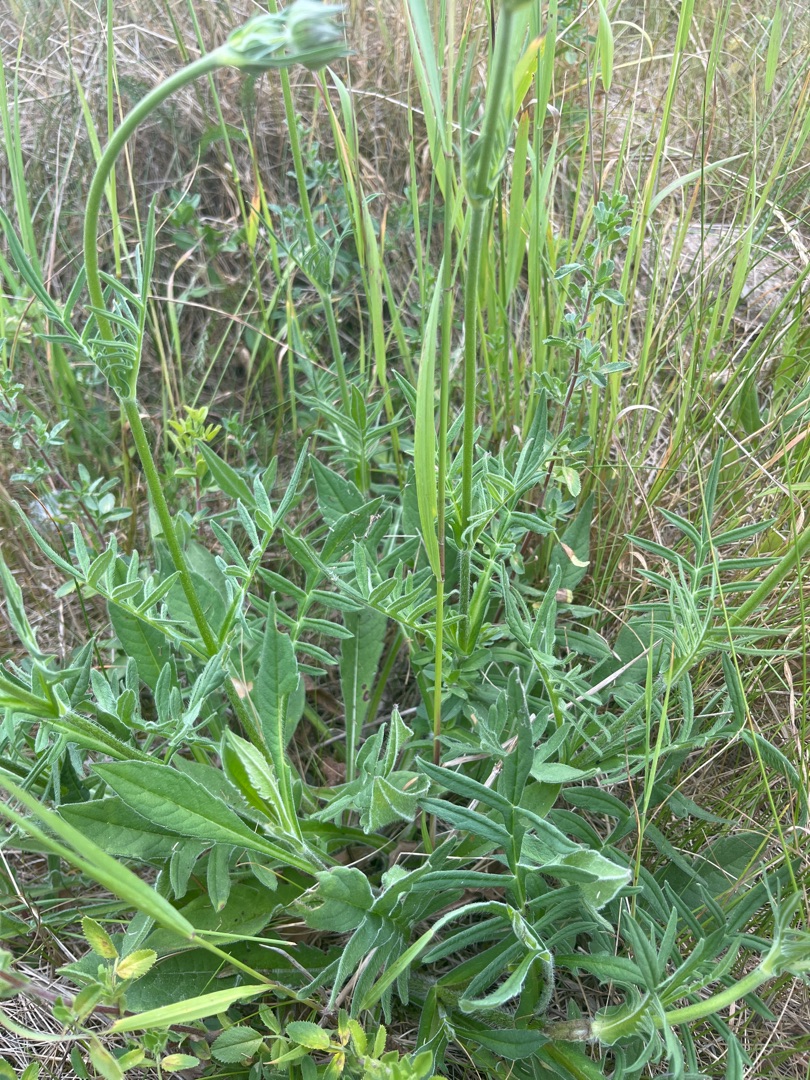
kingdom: Plantae
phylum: Tracheophyta
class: Magnoliopsida
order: Dipsacales
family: Caprifoliaceae
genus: Knautia
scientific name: Knautia arvensis
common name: Blåhat
